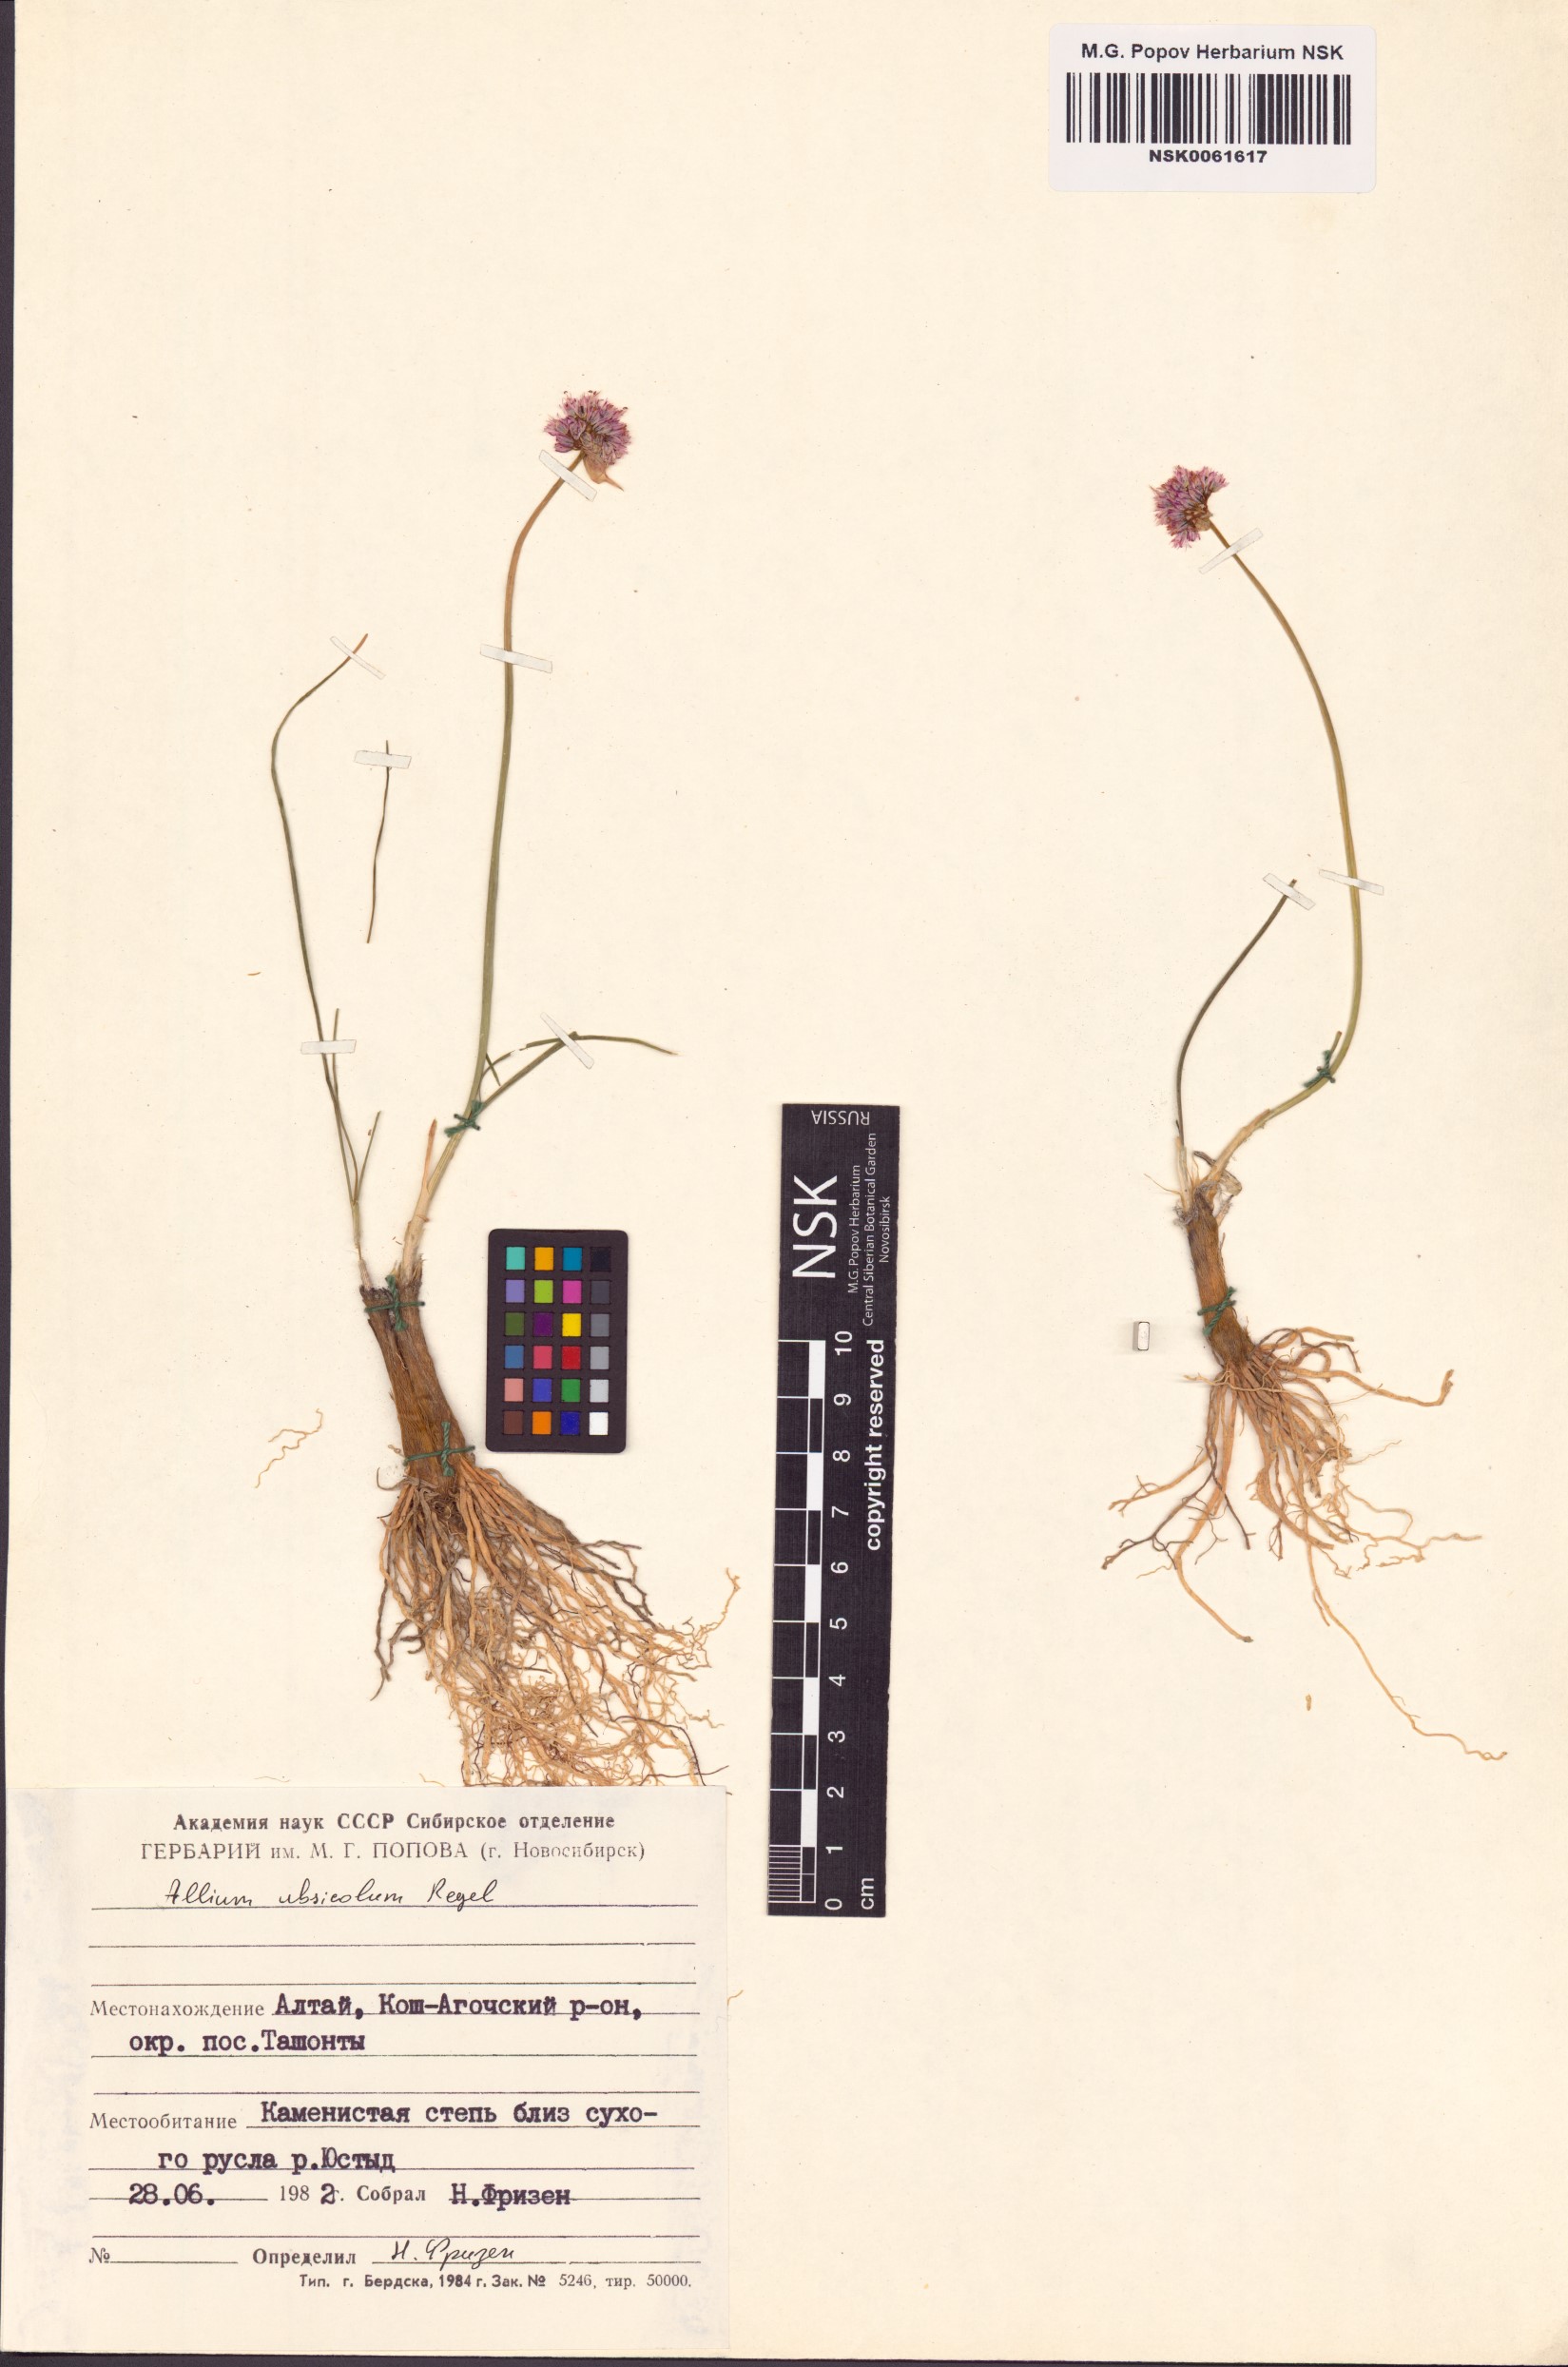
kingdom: Plantae
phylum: Tracheophyta
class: Liliopsida
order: Asparagales
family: Amaryllidaceae
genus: Allium
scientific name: Allium ubsicola
